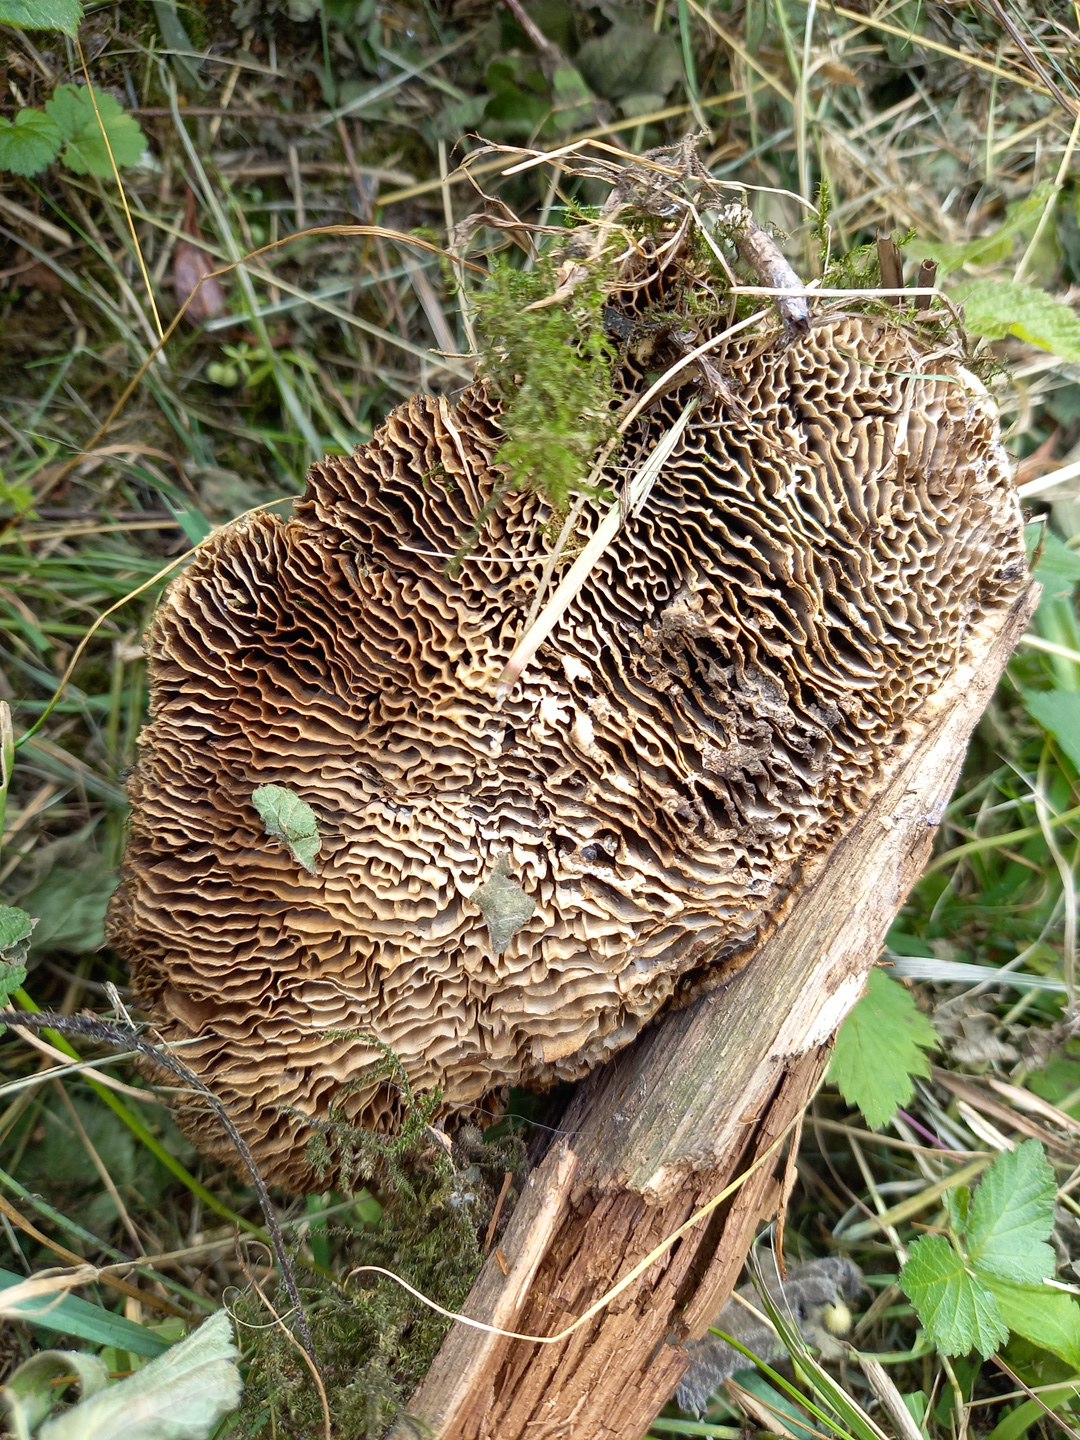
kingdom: Fungi
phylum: Basidiomycota
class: Agaricomycetes
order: Polyporales
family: Fomitopsidaceae
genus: Daedalea
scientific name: Daedalea quercina
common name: ege-labyrintsvamp
